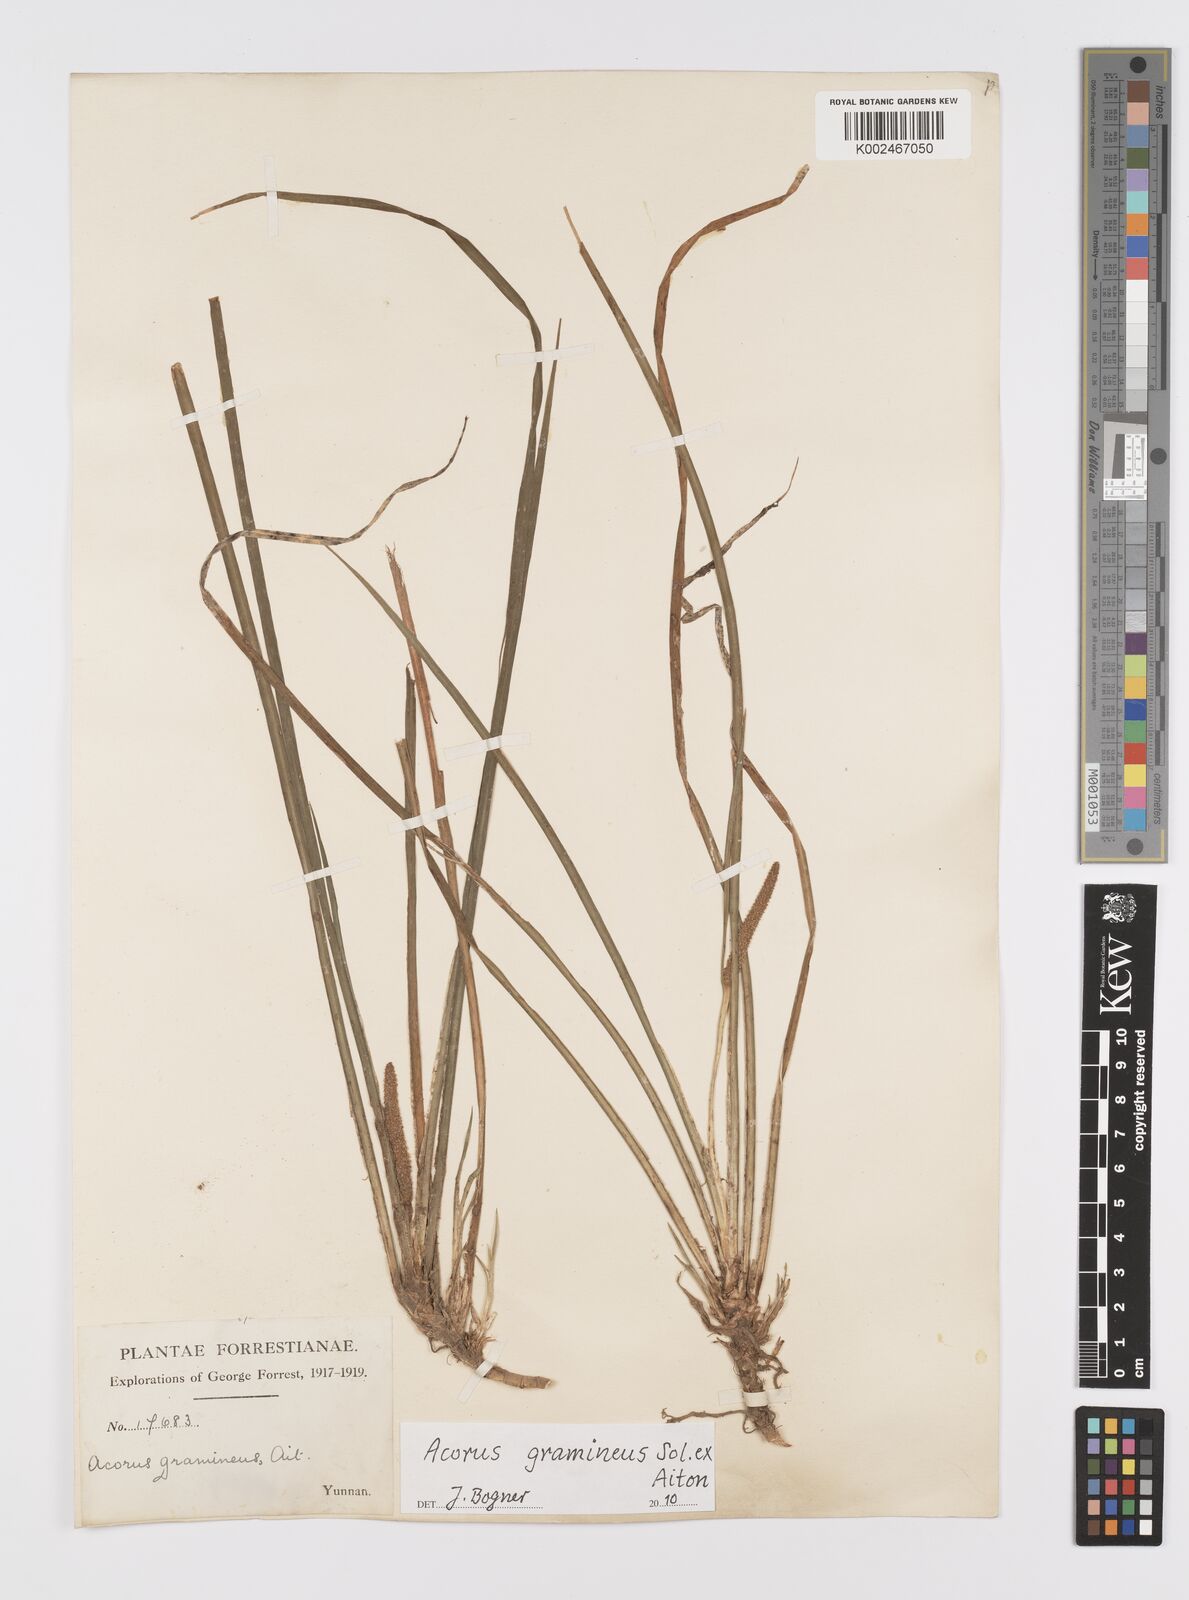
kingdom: Plantae
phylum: Tracheophyta
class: Liliopsida
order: Acorales
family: Acoraceae
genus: Acorus
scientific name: Acorus gramineus
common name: Slender sweet-flag
